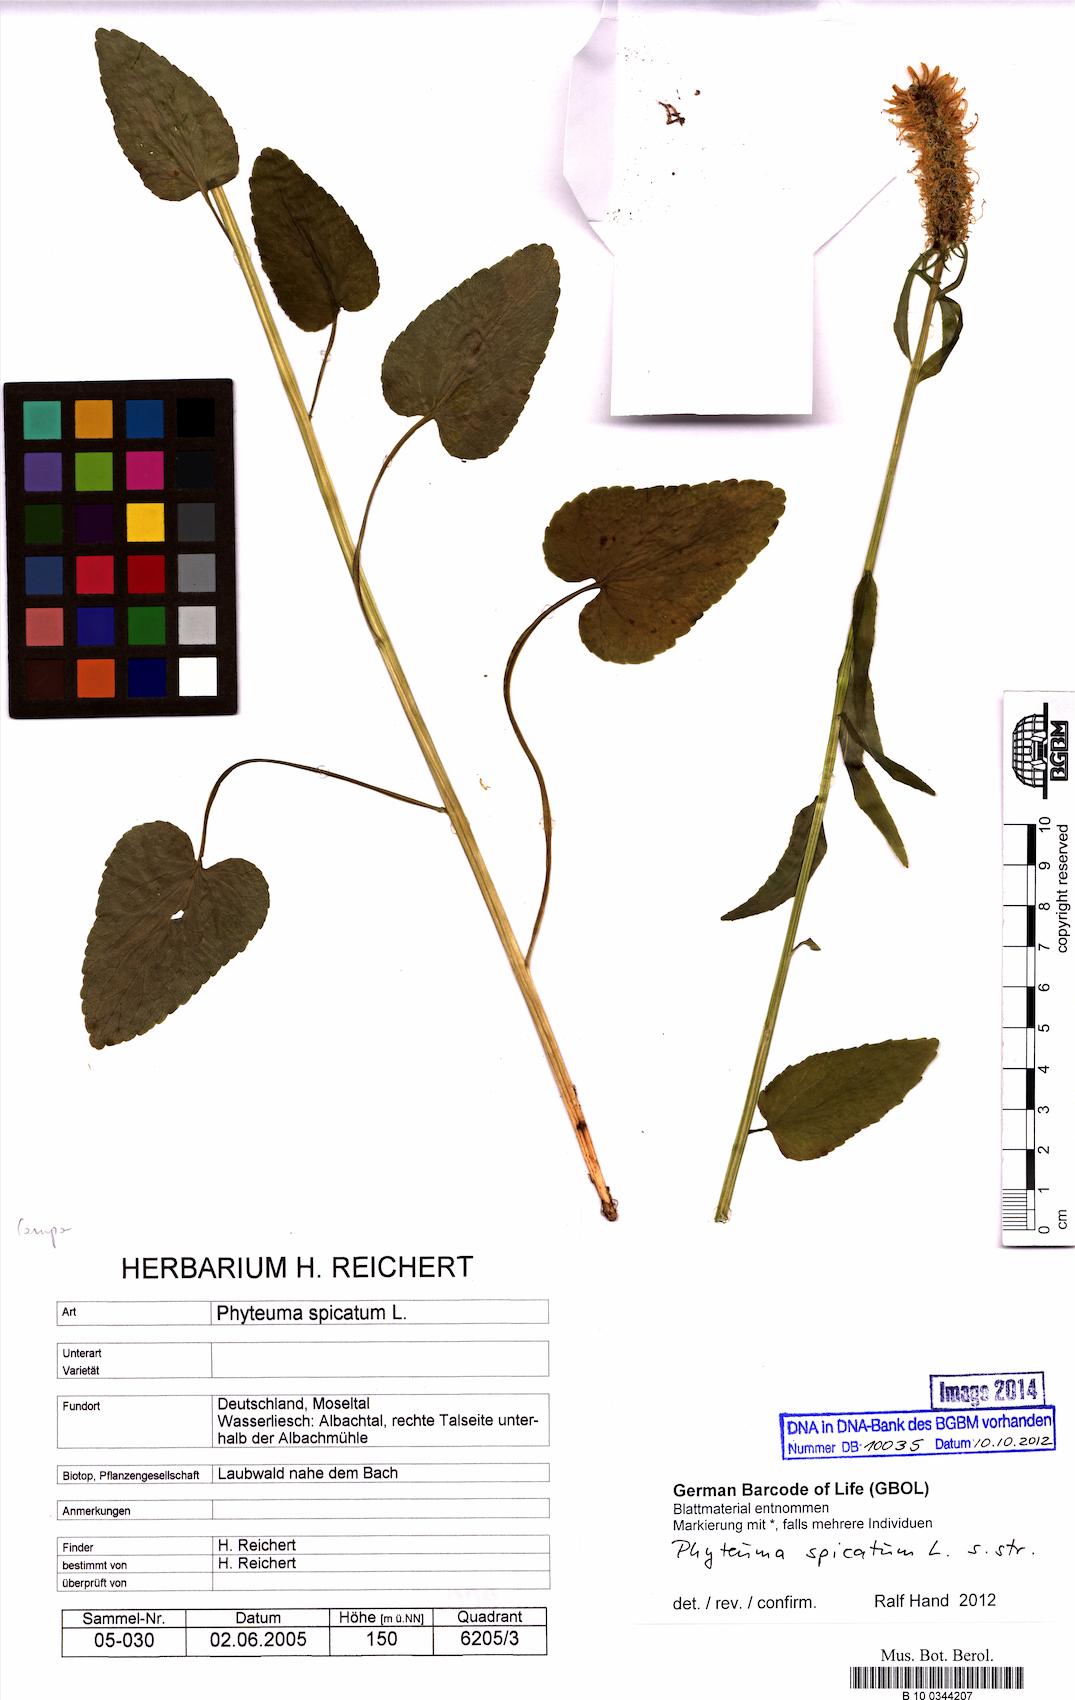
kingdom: Plantae
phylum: Tracheophyta
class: Magnoliopsida
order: Asterales
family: Campanulaceae
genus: Phyteuma
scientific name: Phyteuma spicatum
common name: Spiked rampion
